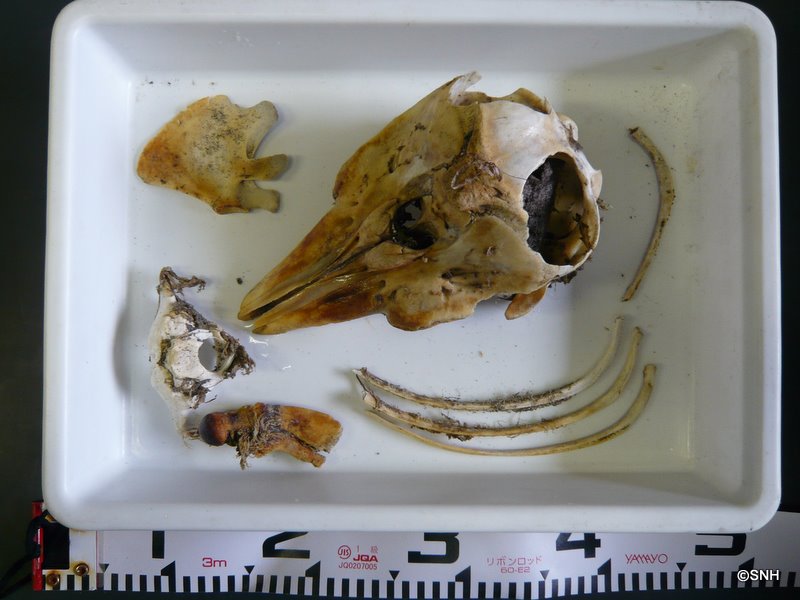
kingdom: Animalia
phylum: Chordata
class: Mammalia
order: Cetacea
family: Phocoenidae
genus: Phocoena
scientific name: Phocoena phocoena
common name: Harbour porpoise
